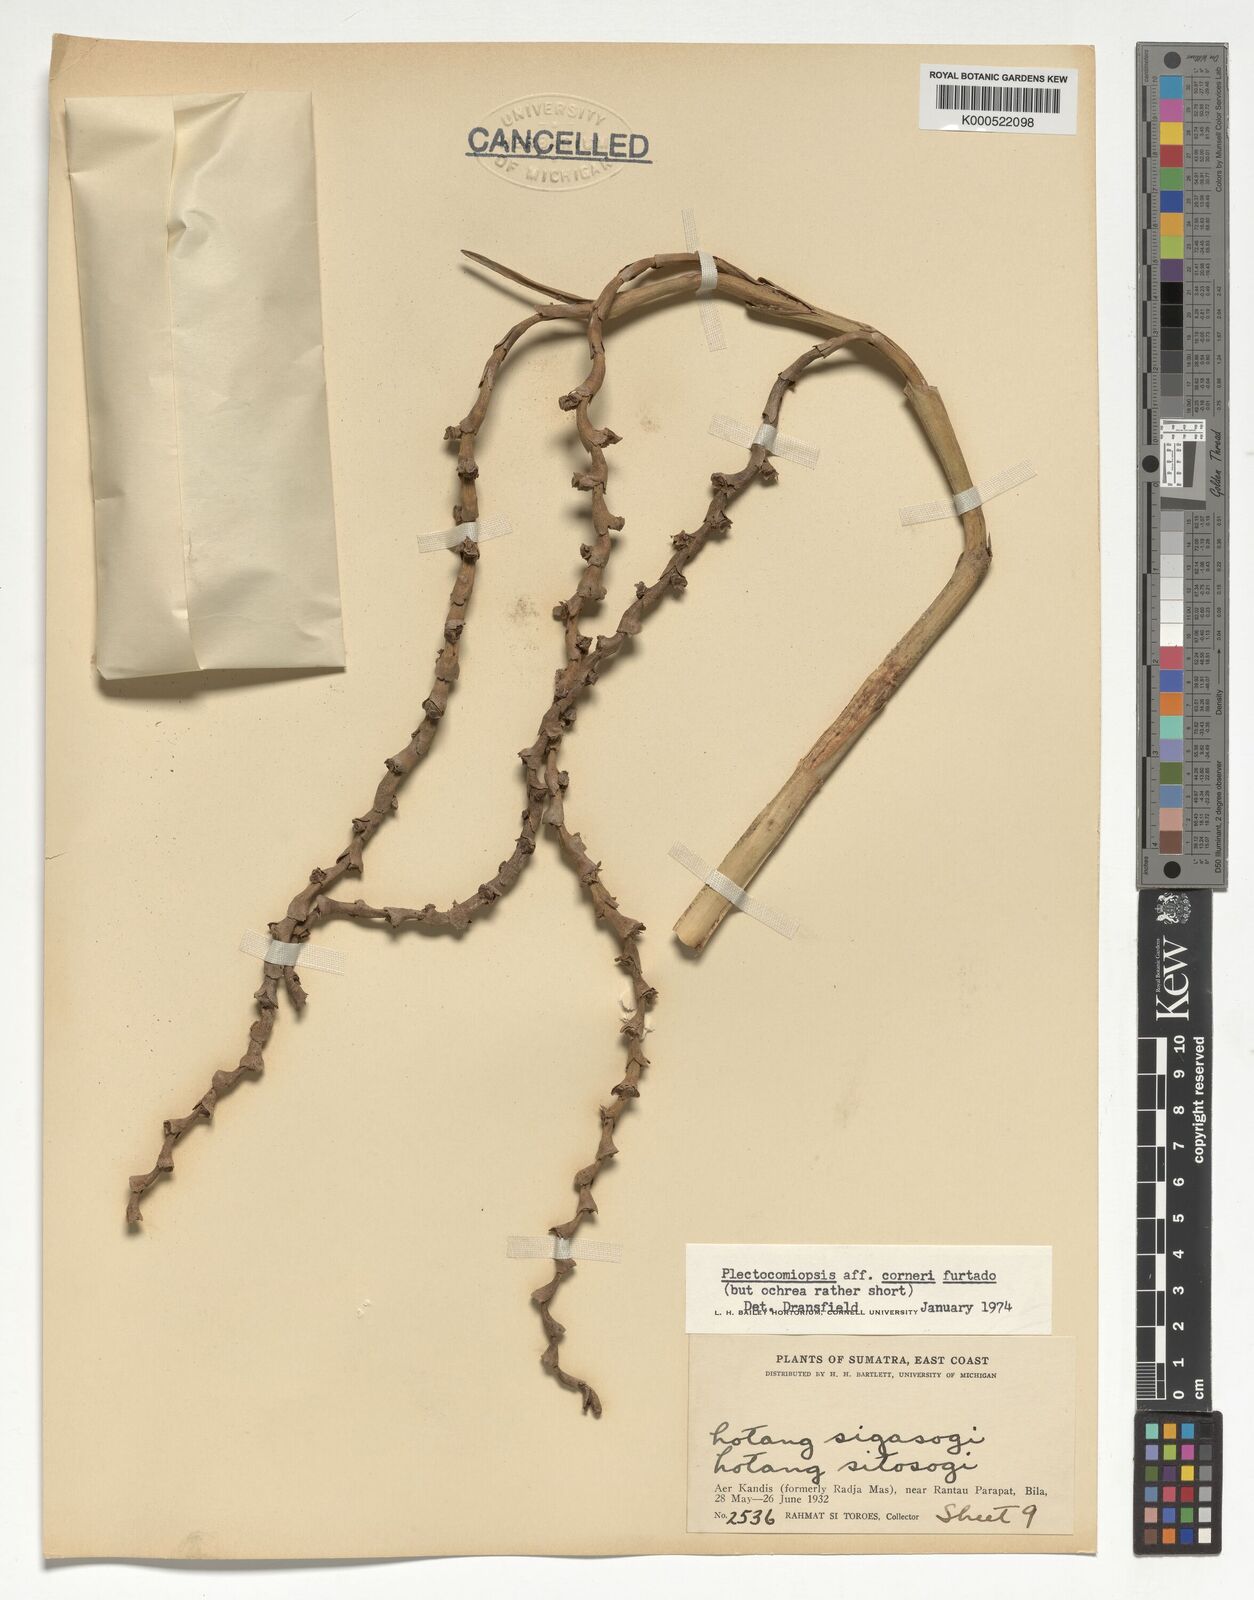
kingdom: Plantae
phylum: Tracheophyta
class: Liliopsida
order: Arecales
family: Arecaceae
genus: Plectocomiopsis
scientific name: Plectocomiopsis corneri
